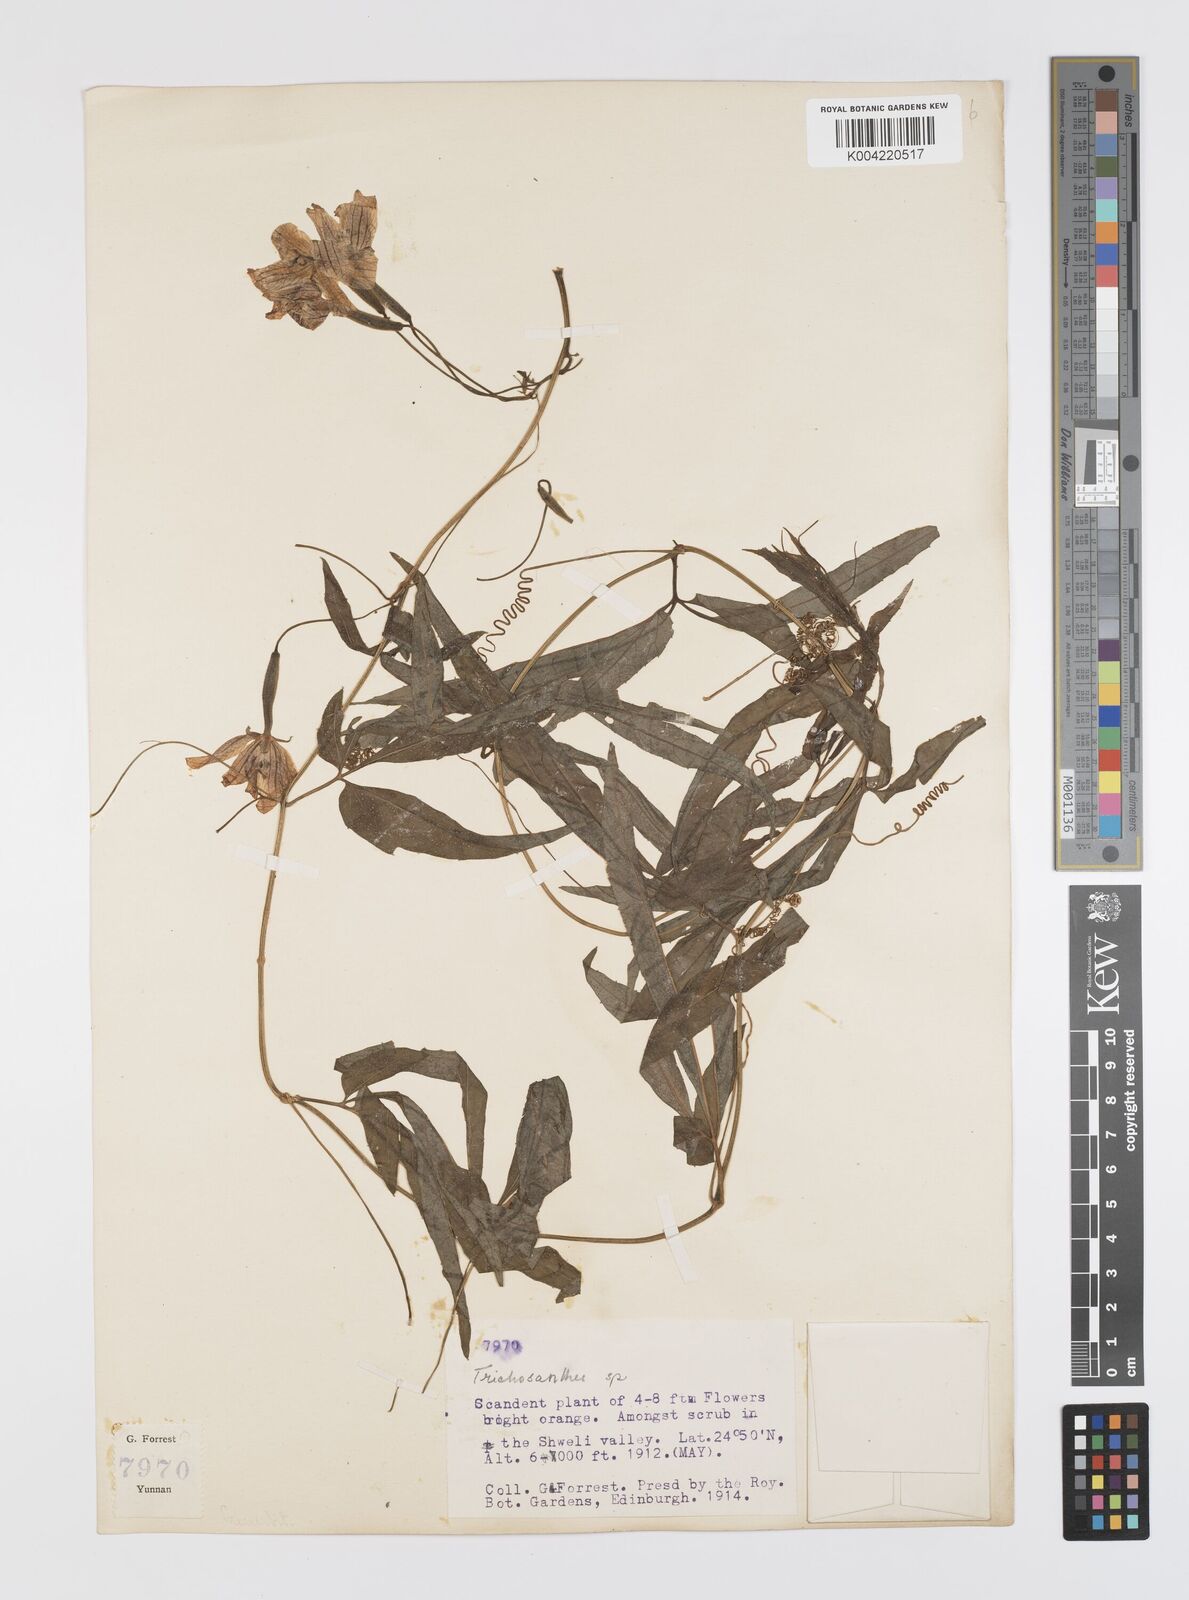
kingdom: Plantae
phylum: Tracheophyta
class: Magnoliopsida
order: Cucurbitales
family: Cucurbitaceae
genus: Thladiantha
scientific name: Thladiantha hookeri
